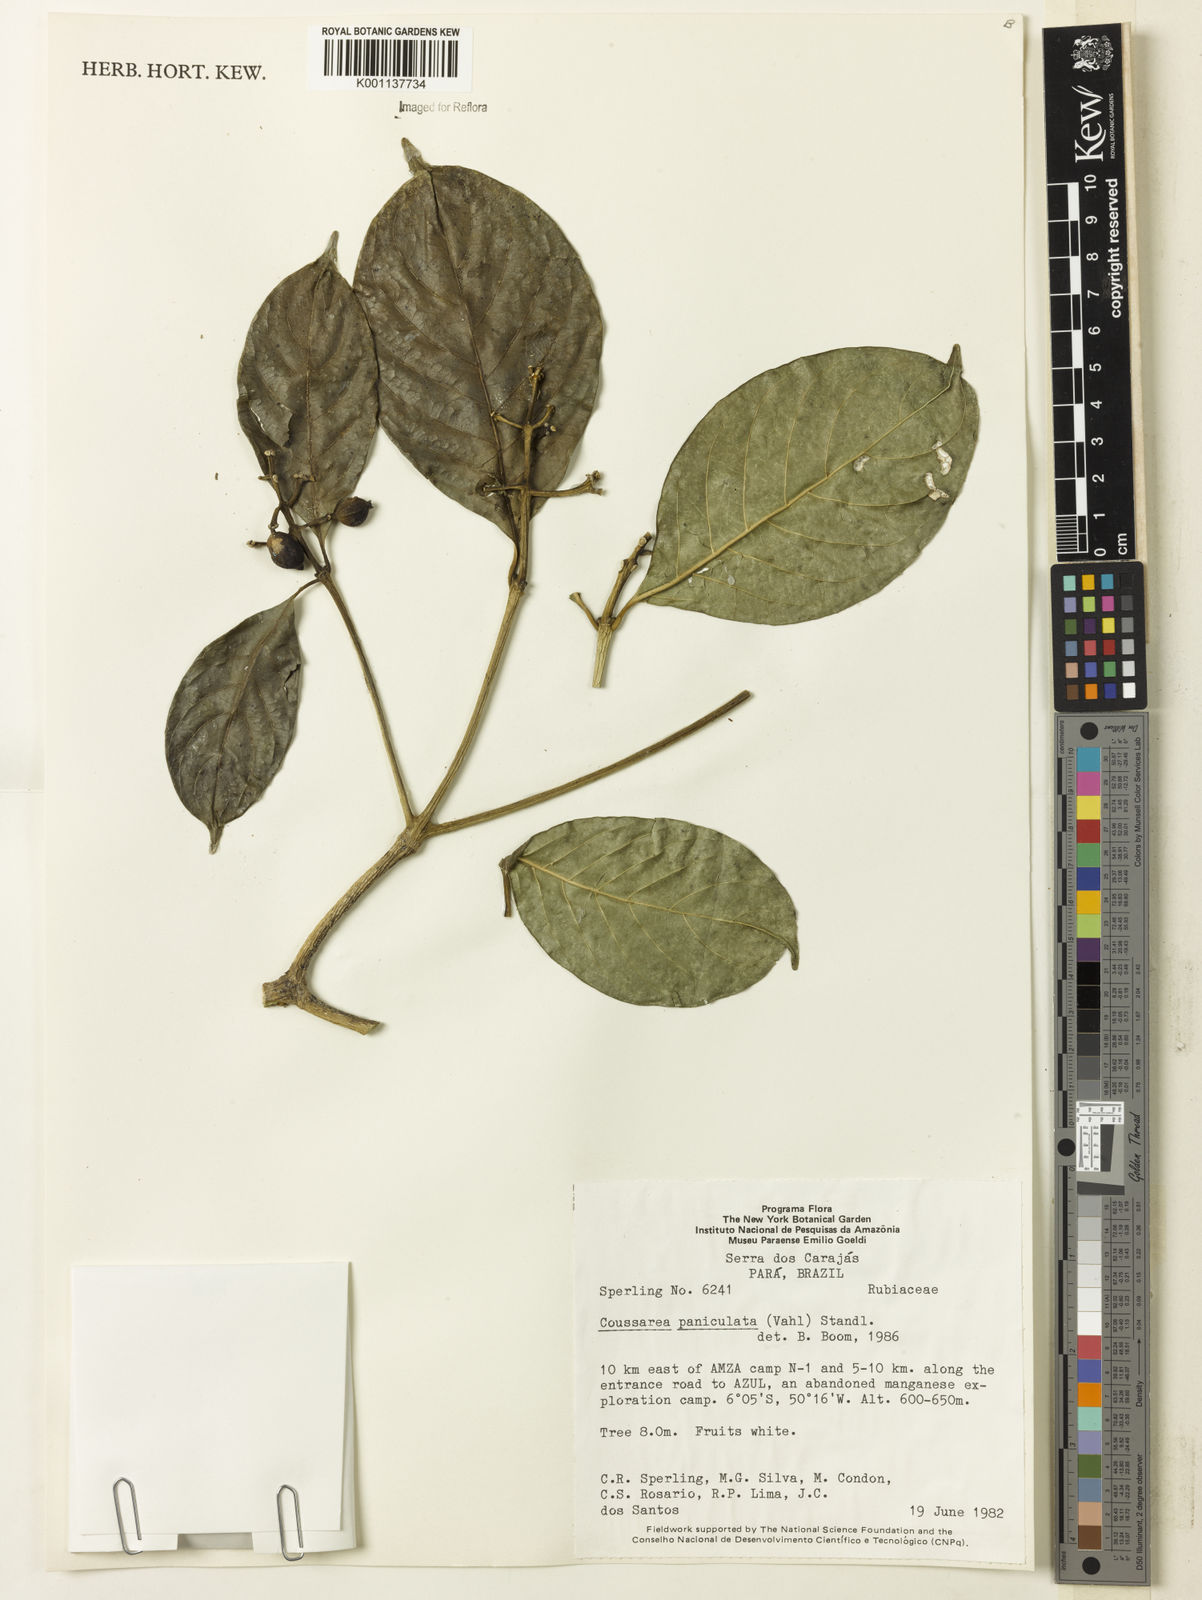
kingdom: Plantae
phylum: Tracheophyta
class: Magnoliopsida
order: Gentianales
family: Rubiaceae
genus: Coussarea
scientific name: Coussarea paniculata
